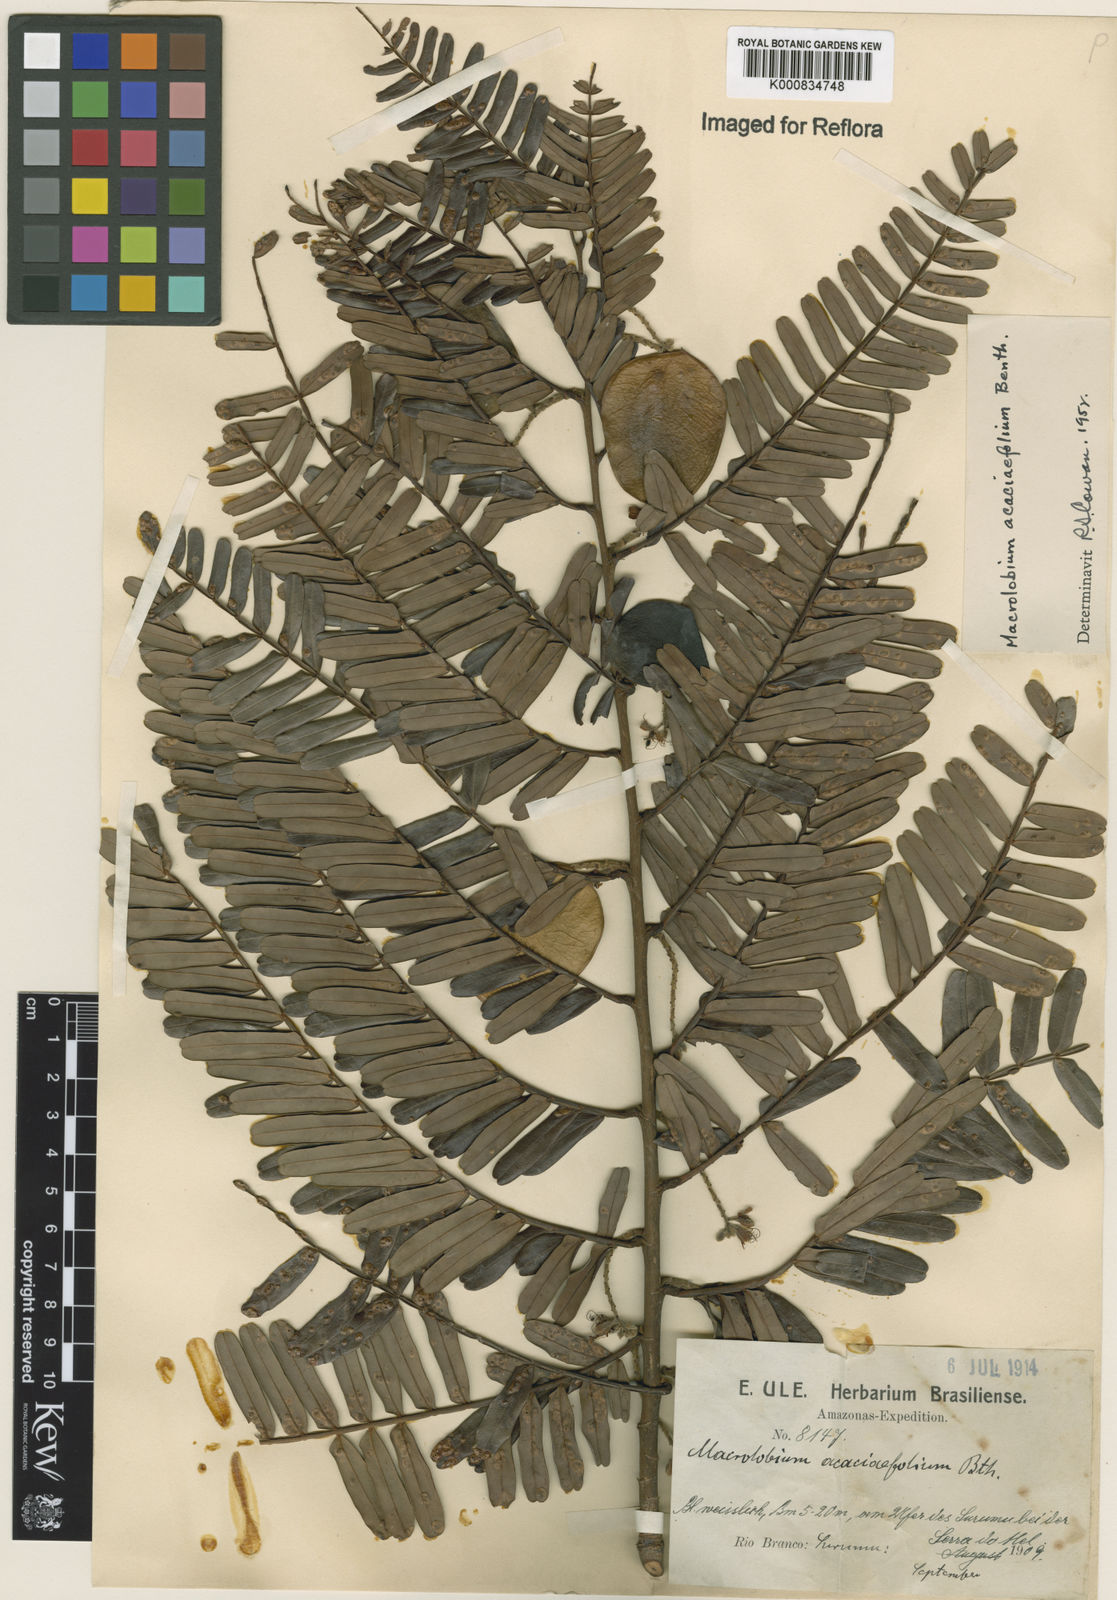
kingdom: Plantae
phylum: Tracheophyta
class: Magnoliopsida
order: Fabales
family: Fabaceae
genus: Macrolobium
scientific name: Macrolobium acaciifolium
